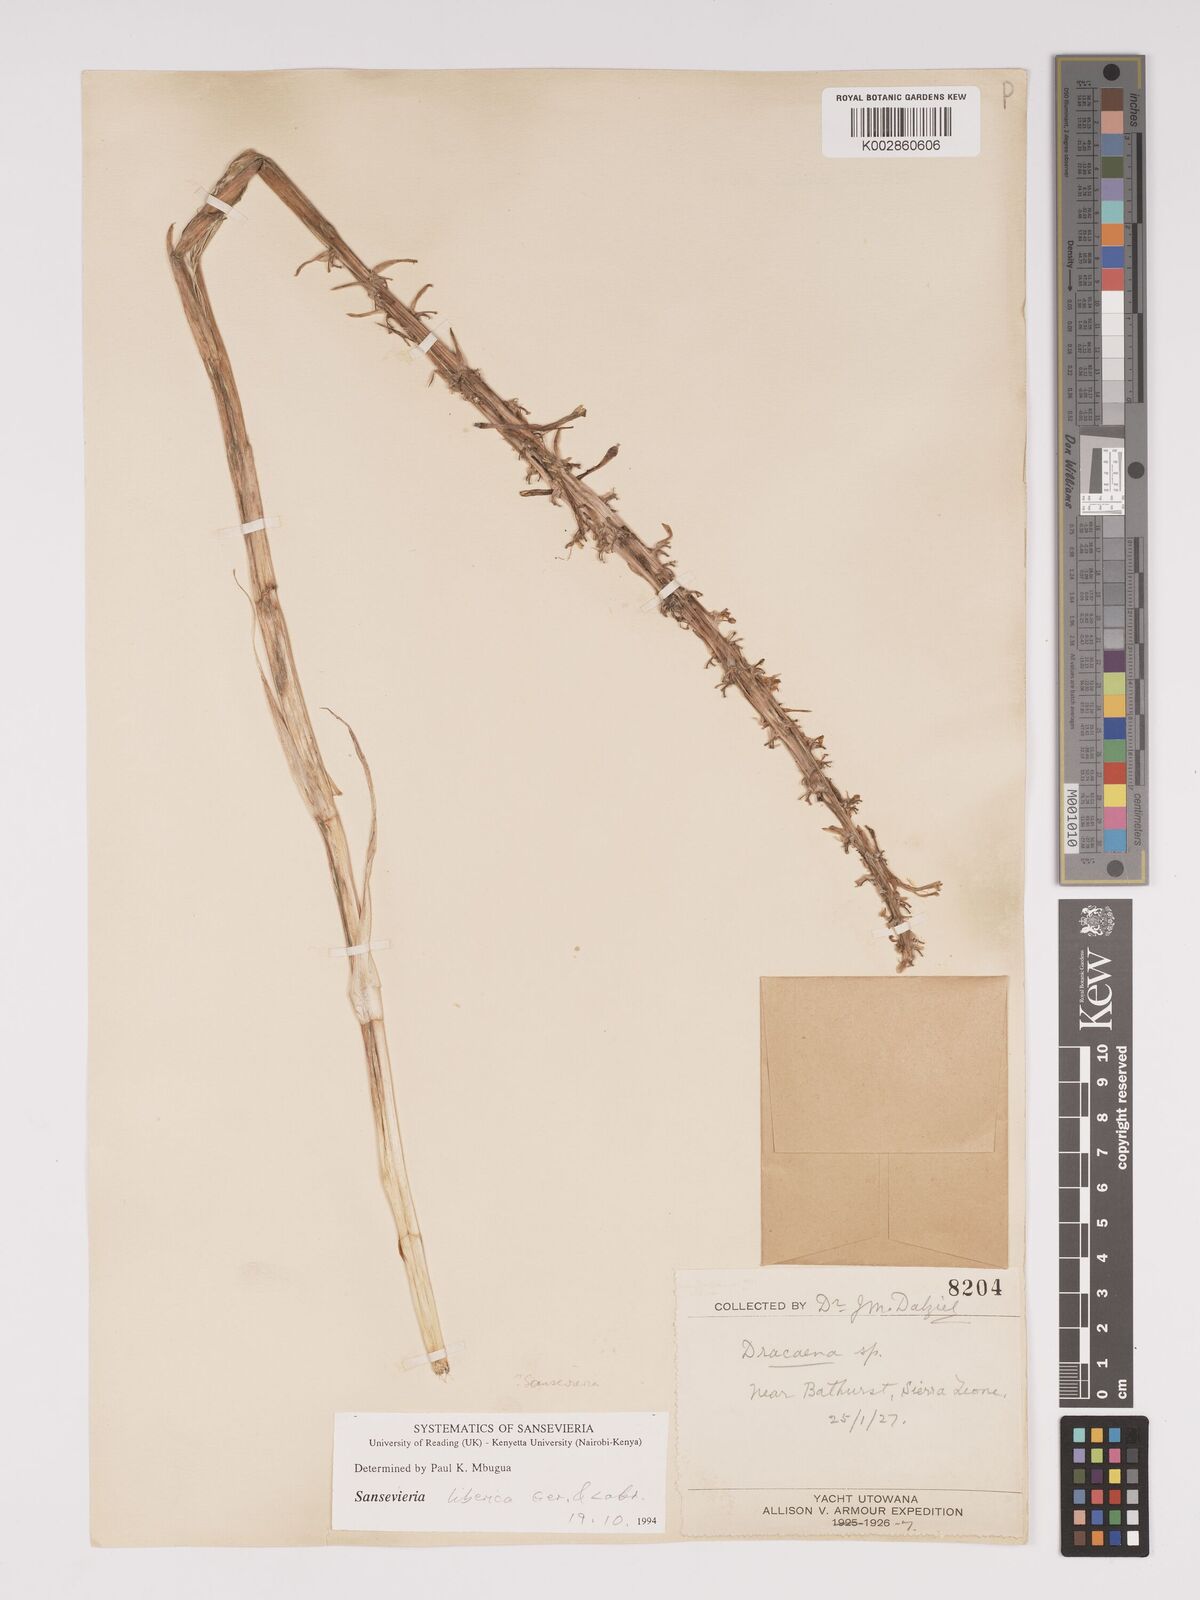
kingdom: Plantae
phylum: Tracheophyta
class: Liliopsida
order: Asparagales
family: Asparagaceae
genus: Dracaena
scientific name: Dracaena liberica
